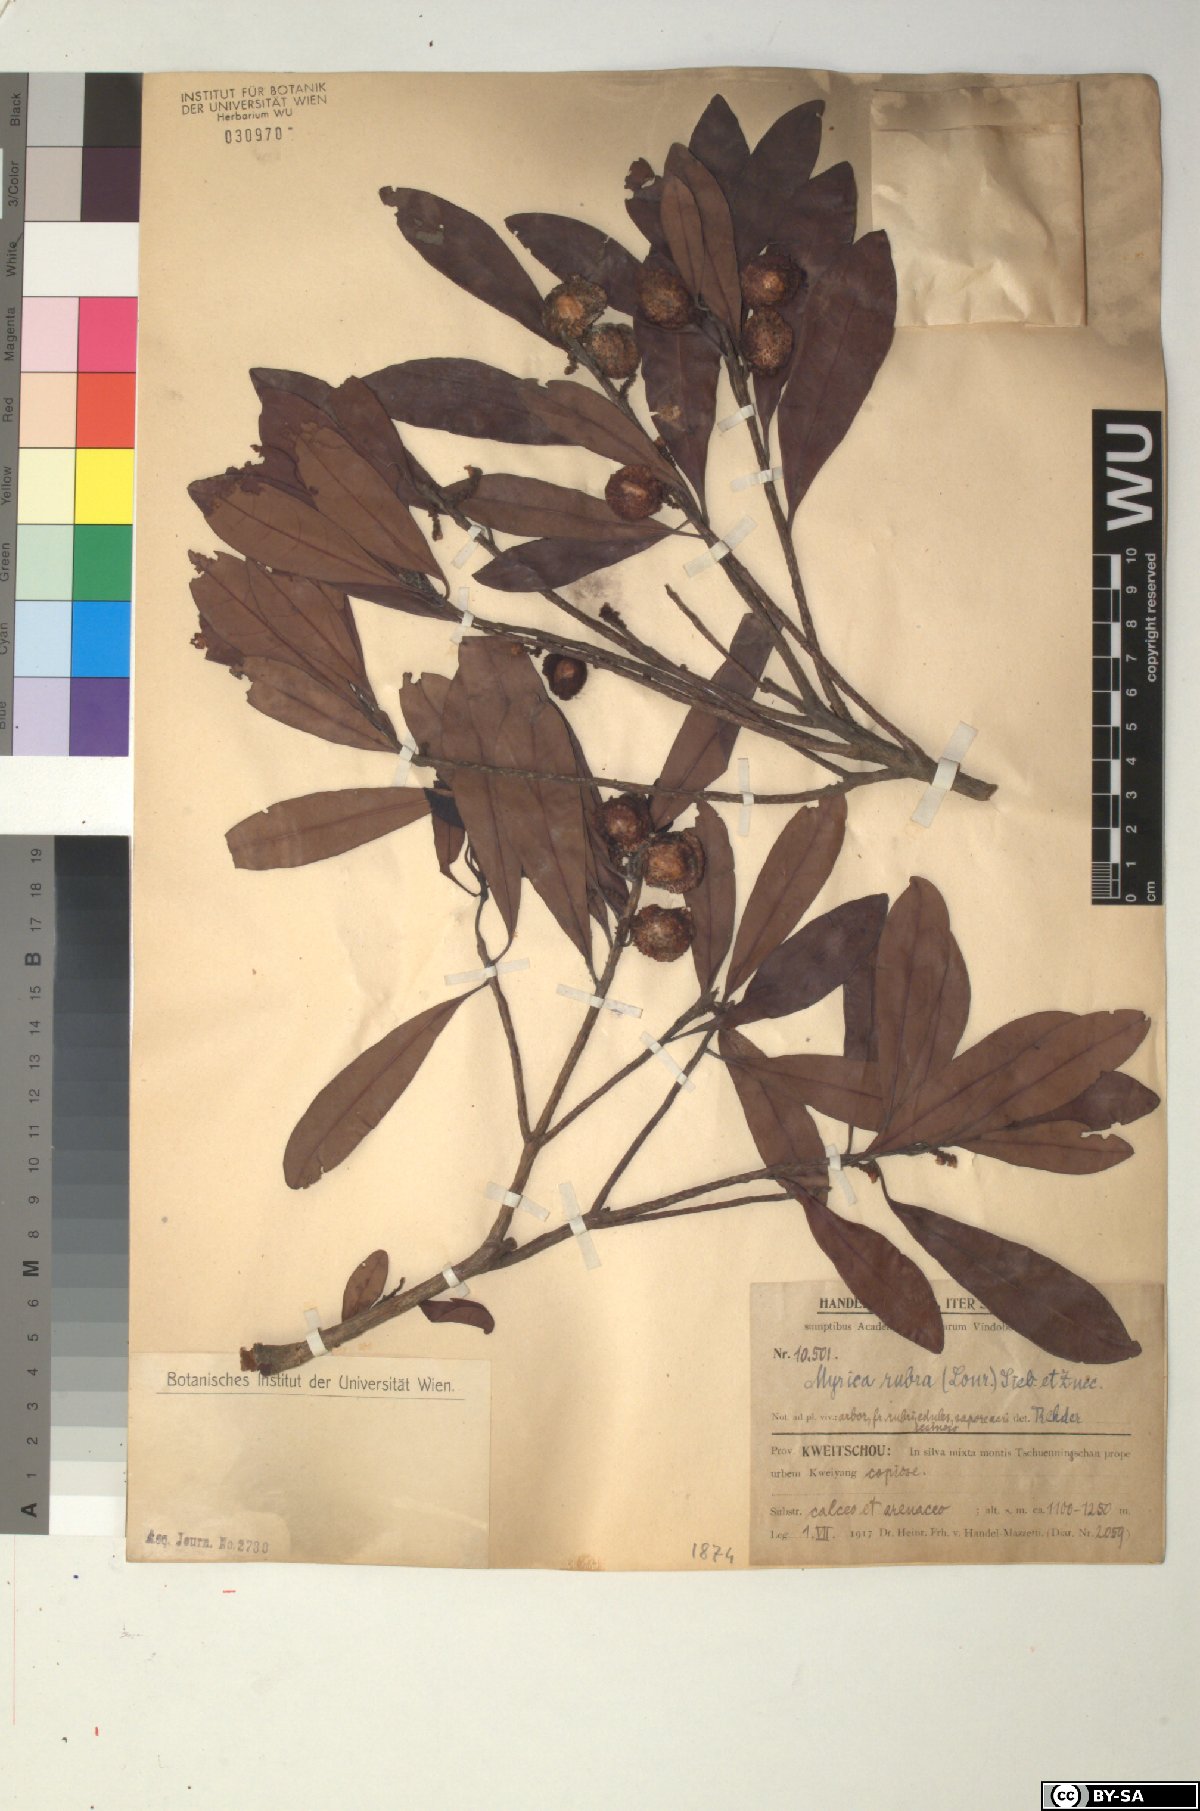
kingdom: Plantae
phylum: Tracheophyta
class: Magnoliopsida
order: Fagales
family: Myricaceae
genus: Morella
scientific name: Morella rubra
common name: Red bayberry
